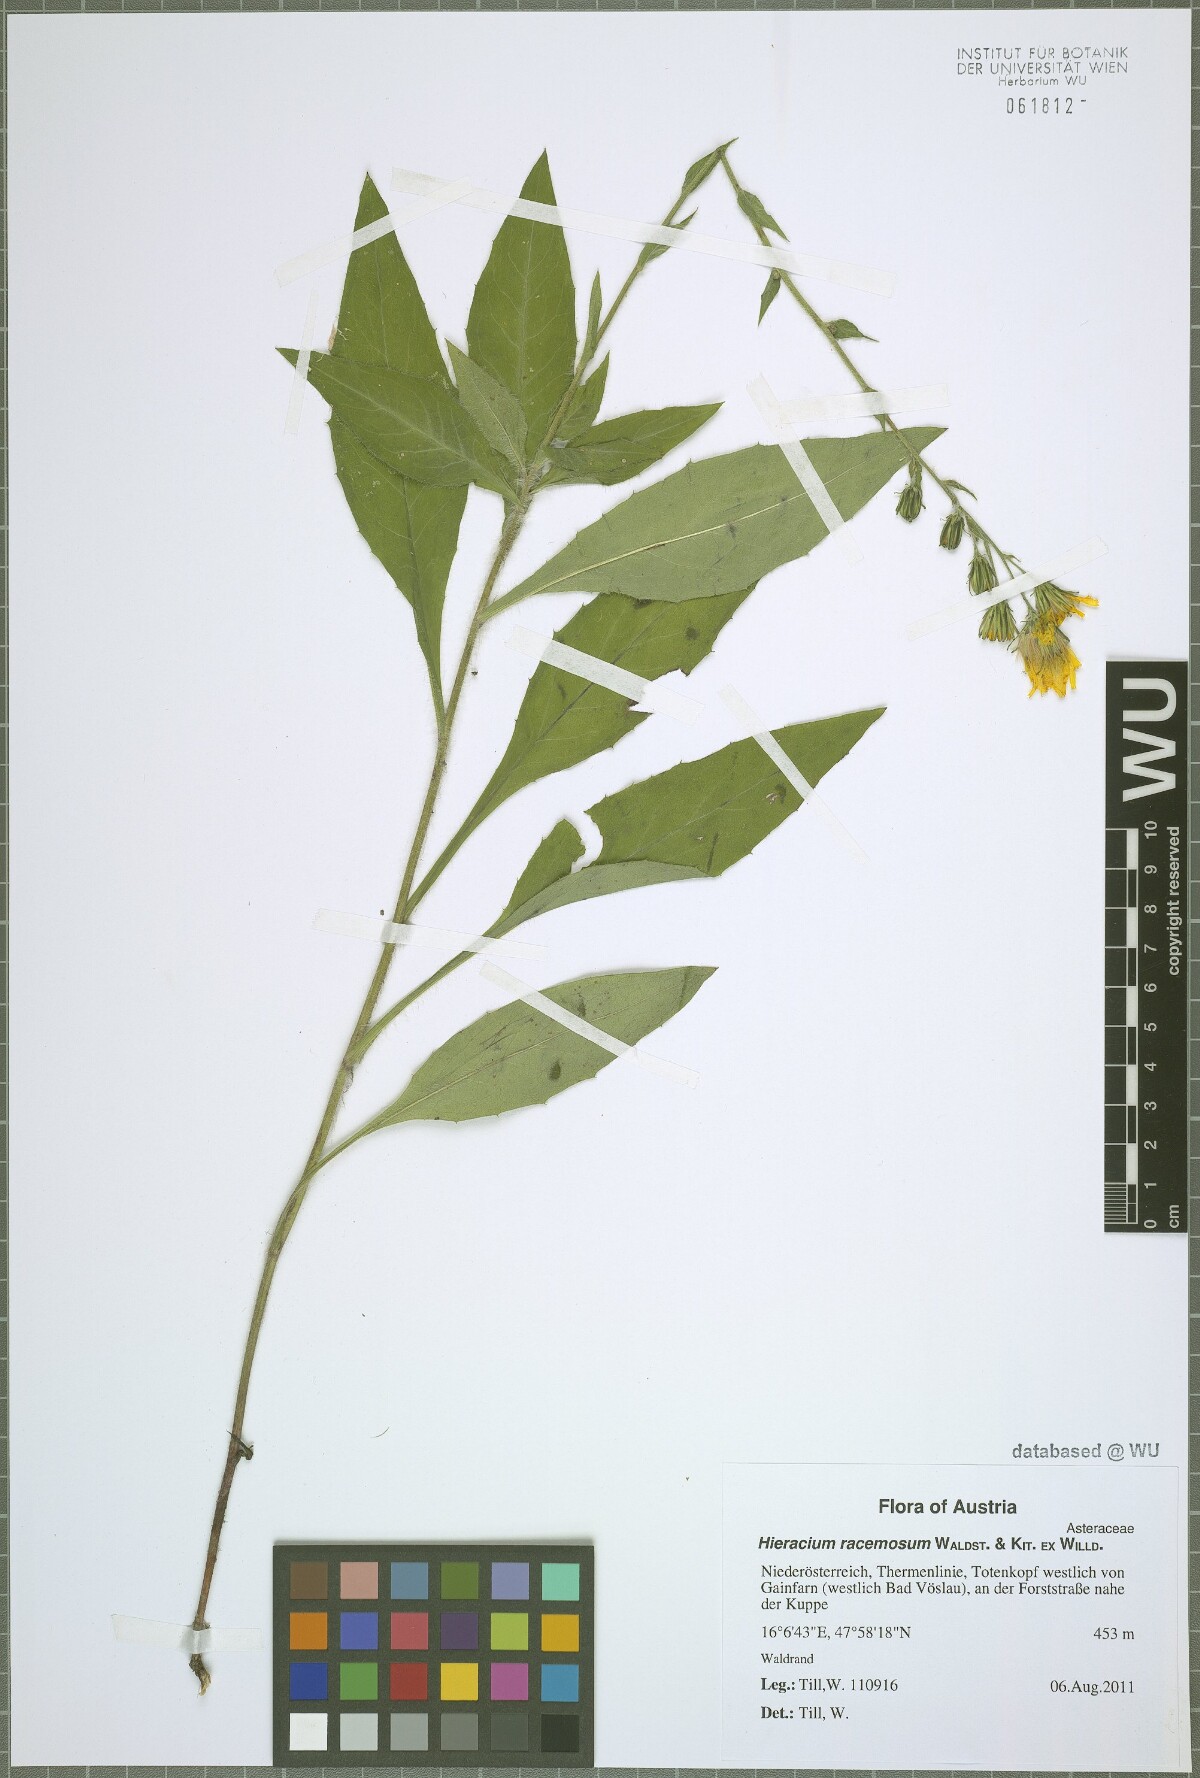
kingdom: Plantae
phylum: Tracheophyta
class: Magnoliopsida
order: Asterales
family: Asteraceae
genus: Hieracium
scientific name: Hieracium racemosum
